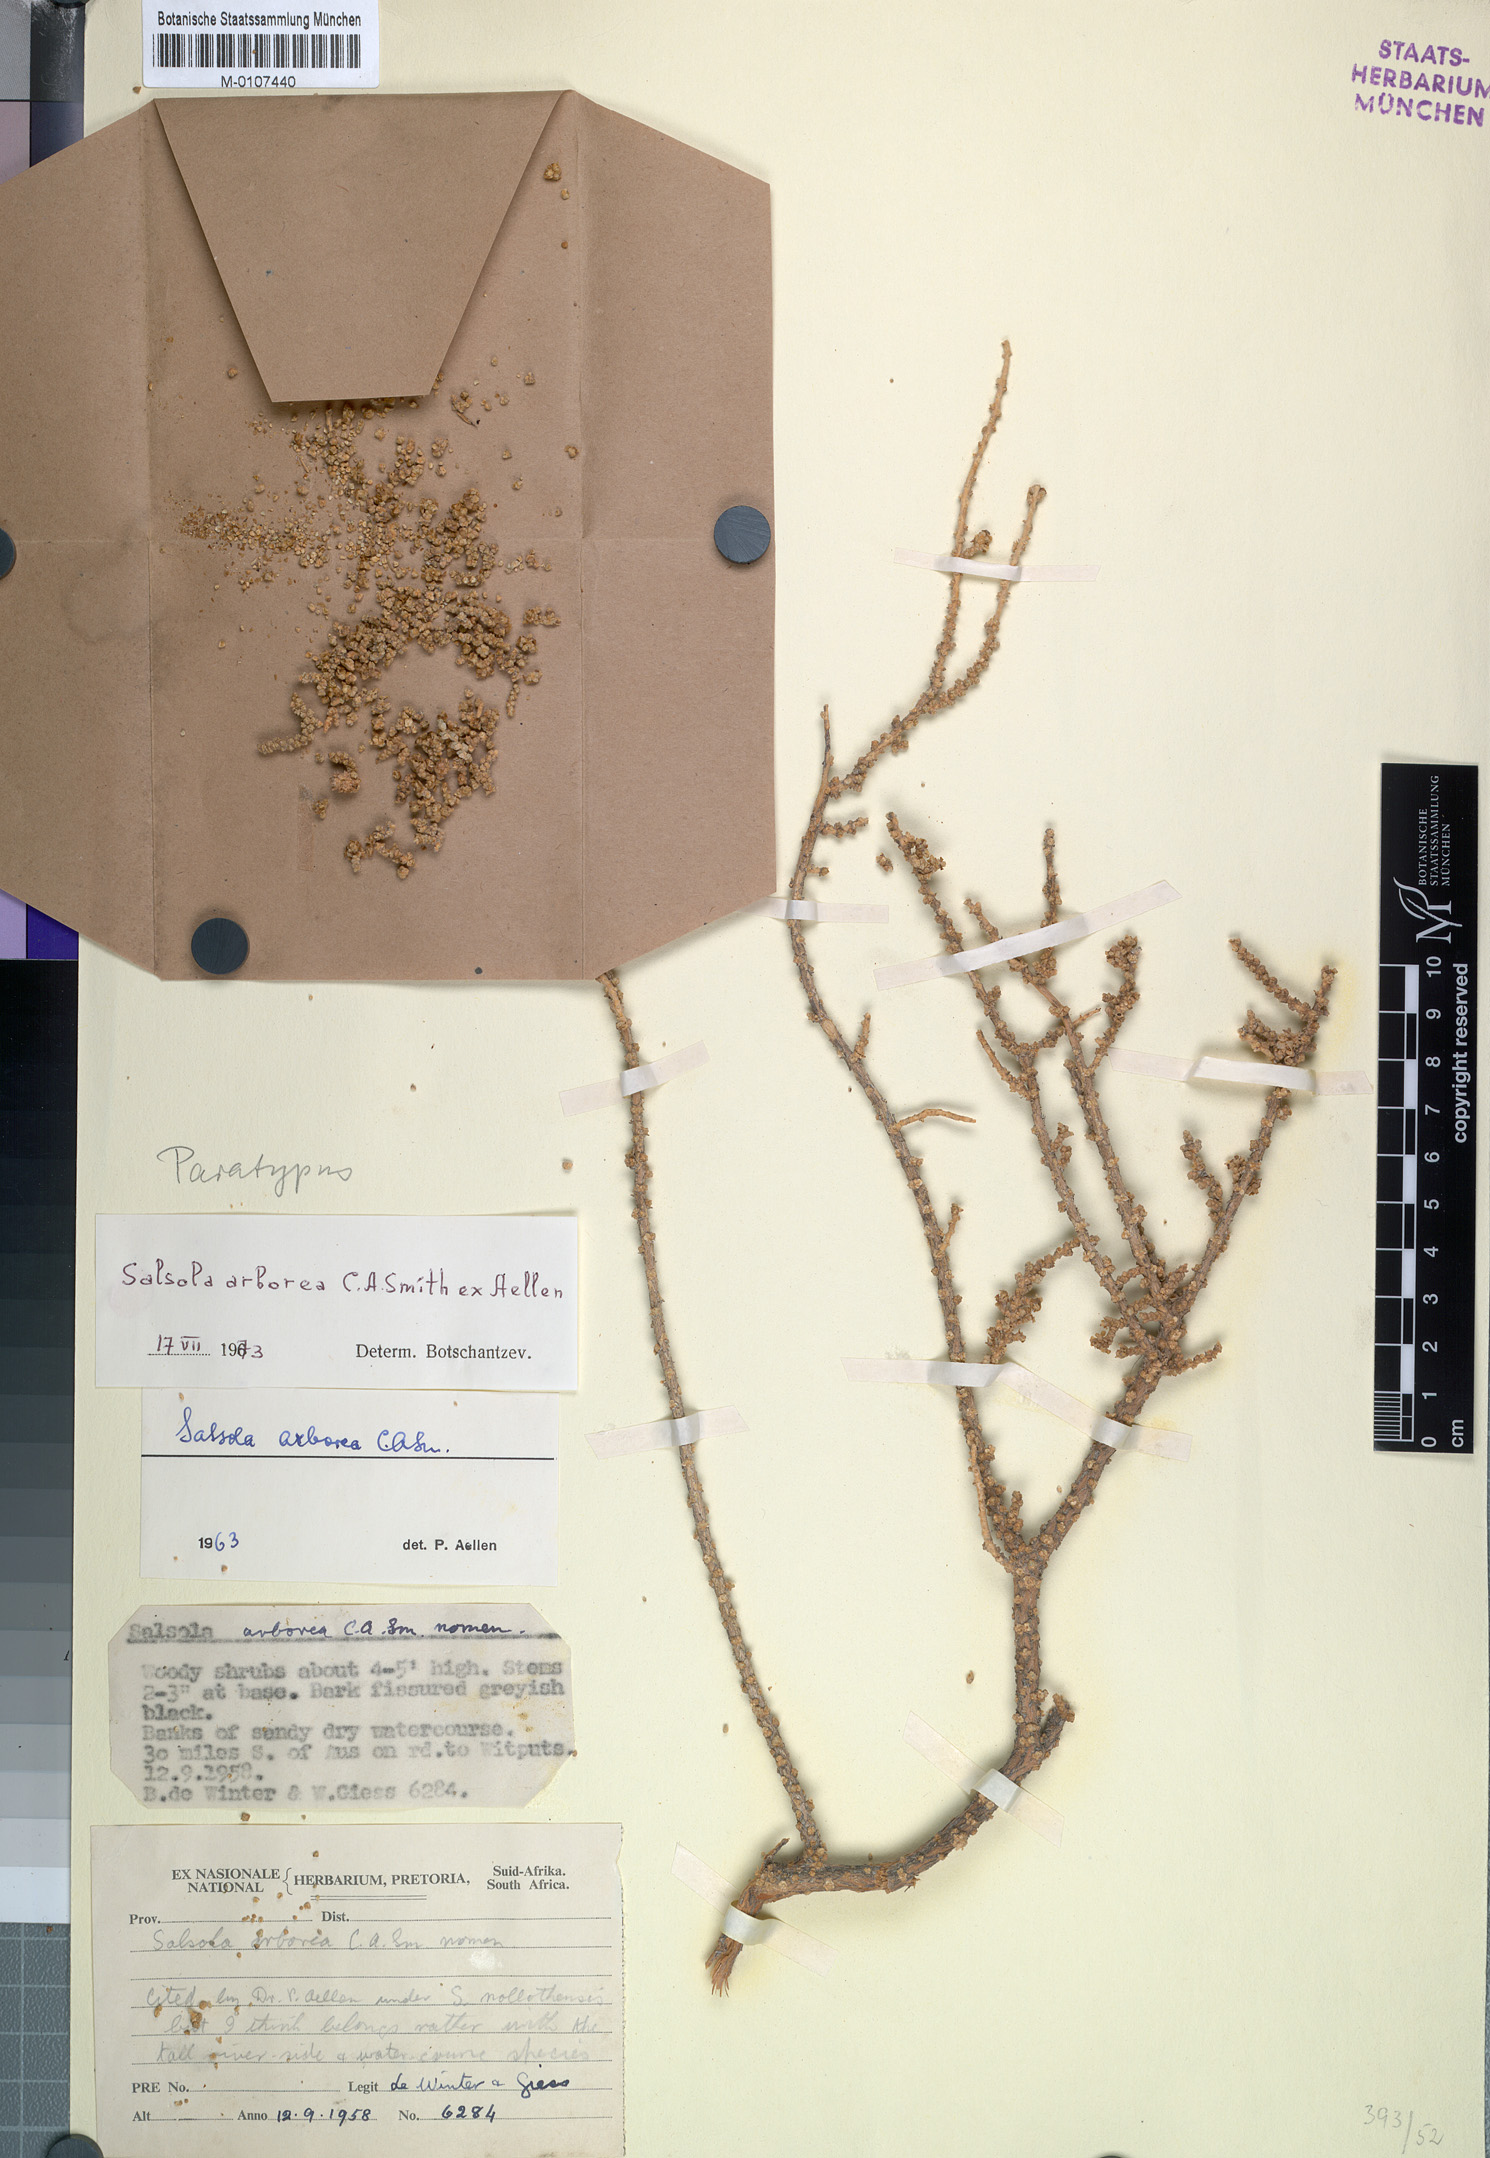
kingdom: Plantae
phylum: Tracheophyta
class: Magnoliopsida
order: Caryophyllales
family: Amaranthaceae
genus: Caroxylon
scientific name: Caroxylon arboreum
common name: Cattle ganna
